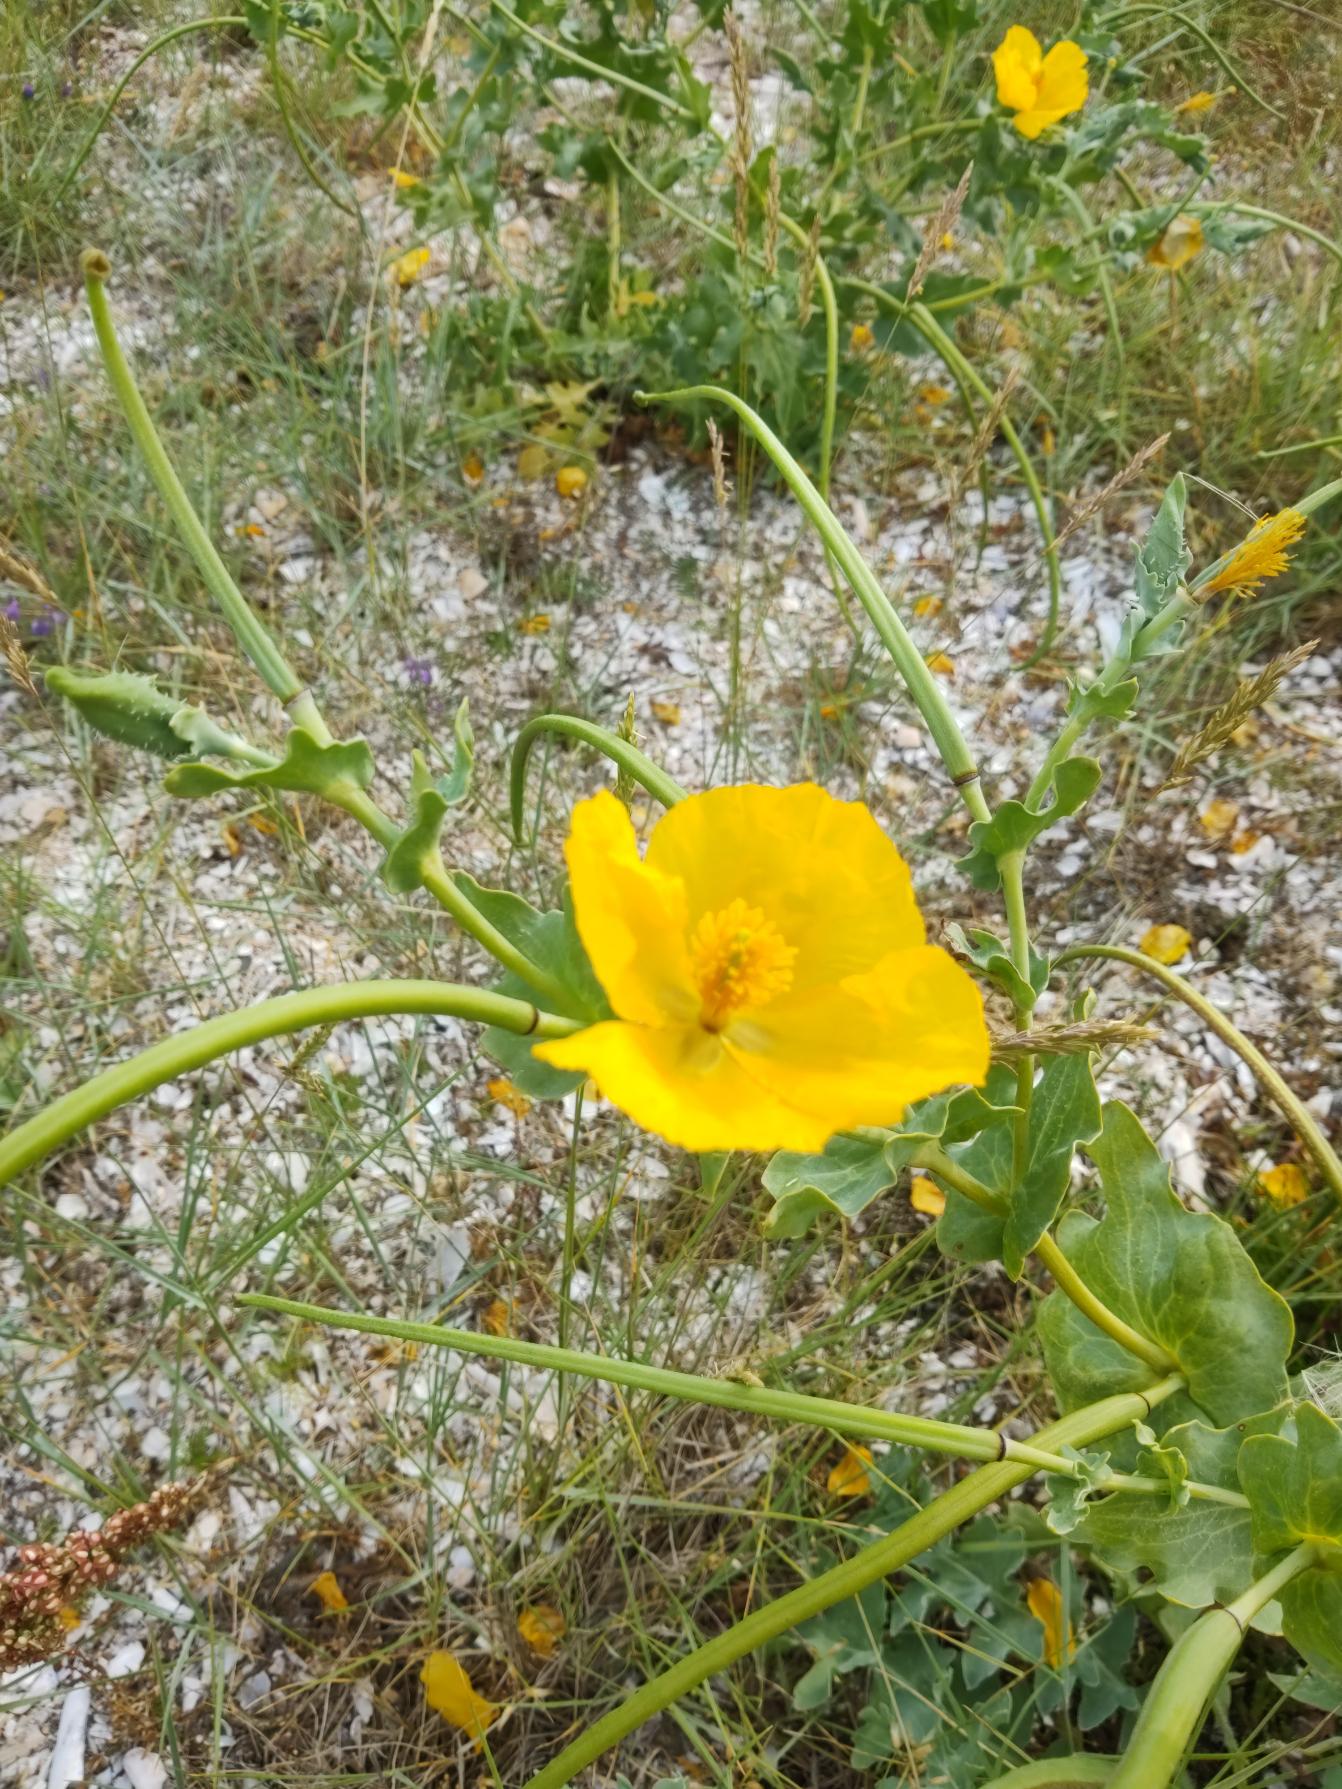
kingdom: Plantae
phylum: Tracheophyta
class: Magnoliopsida
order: Ranunculales
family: Papaveraceae
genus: Glaucium
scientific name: Glaucium flavum
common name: Hornskulpe
